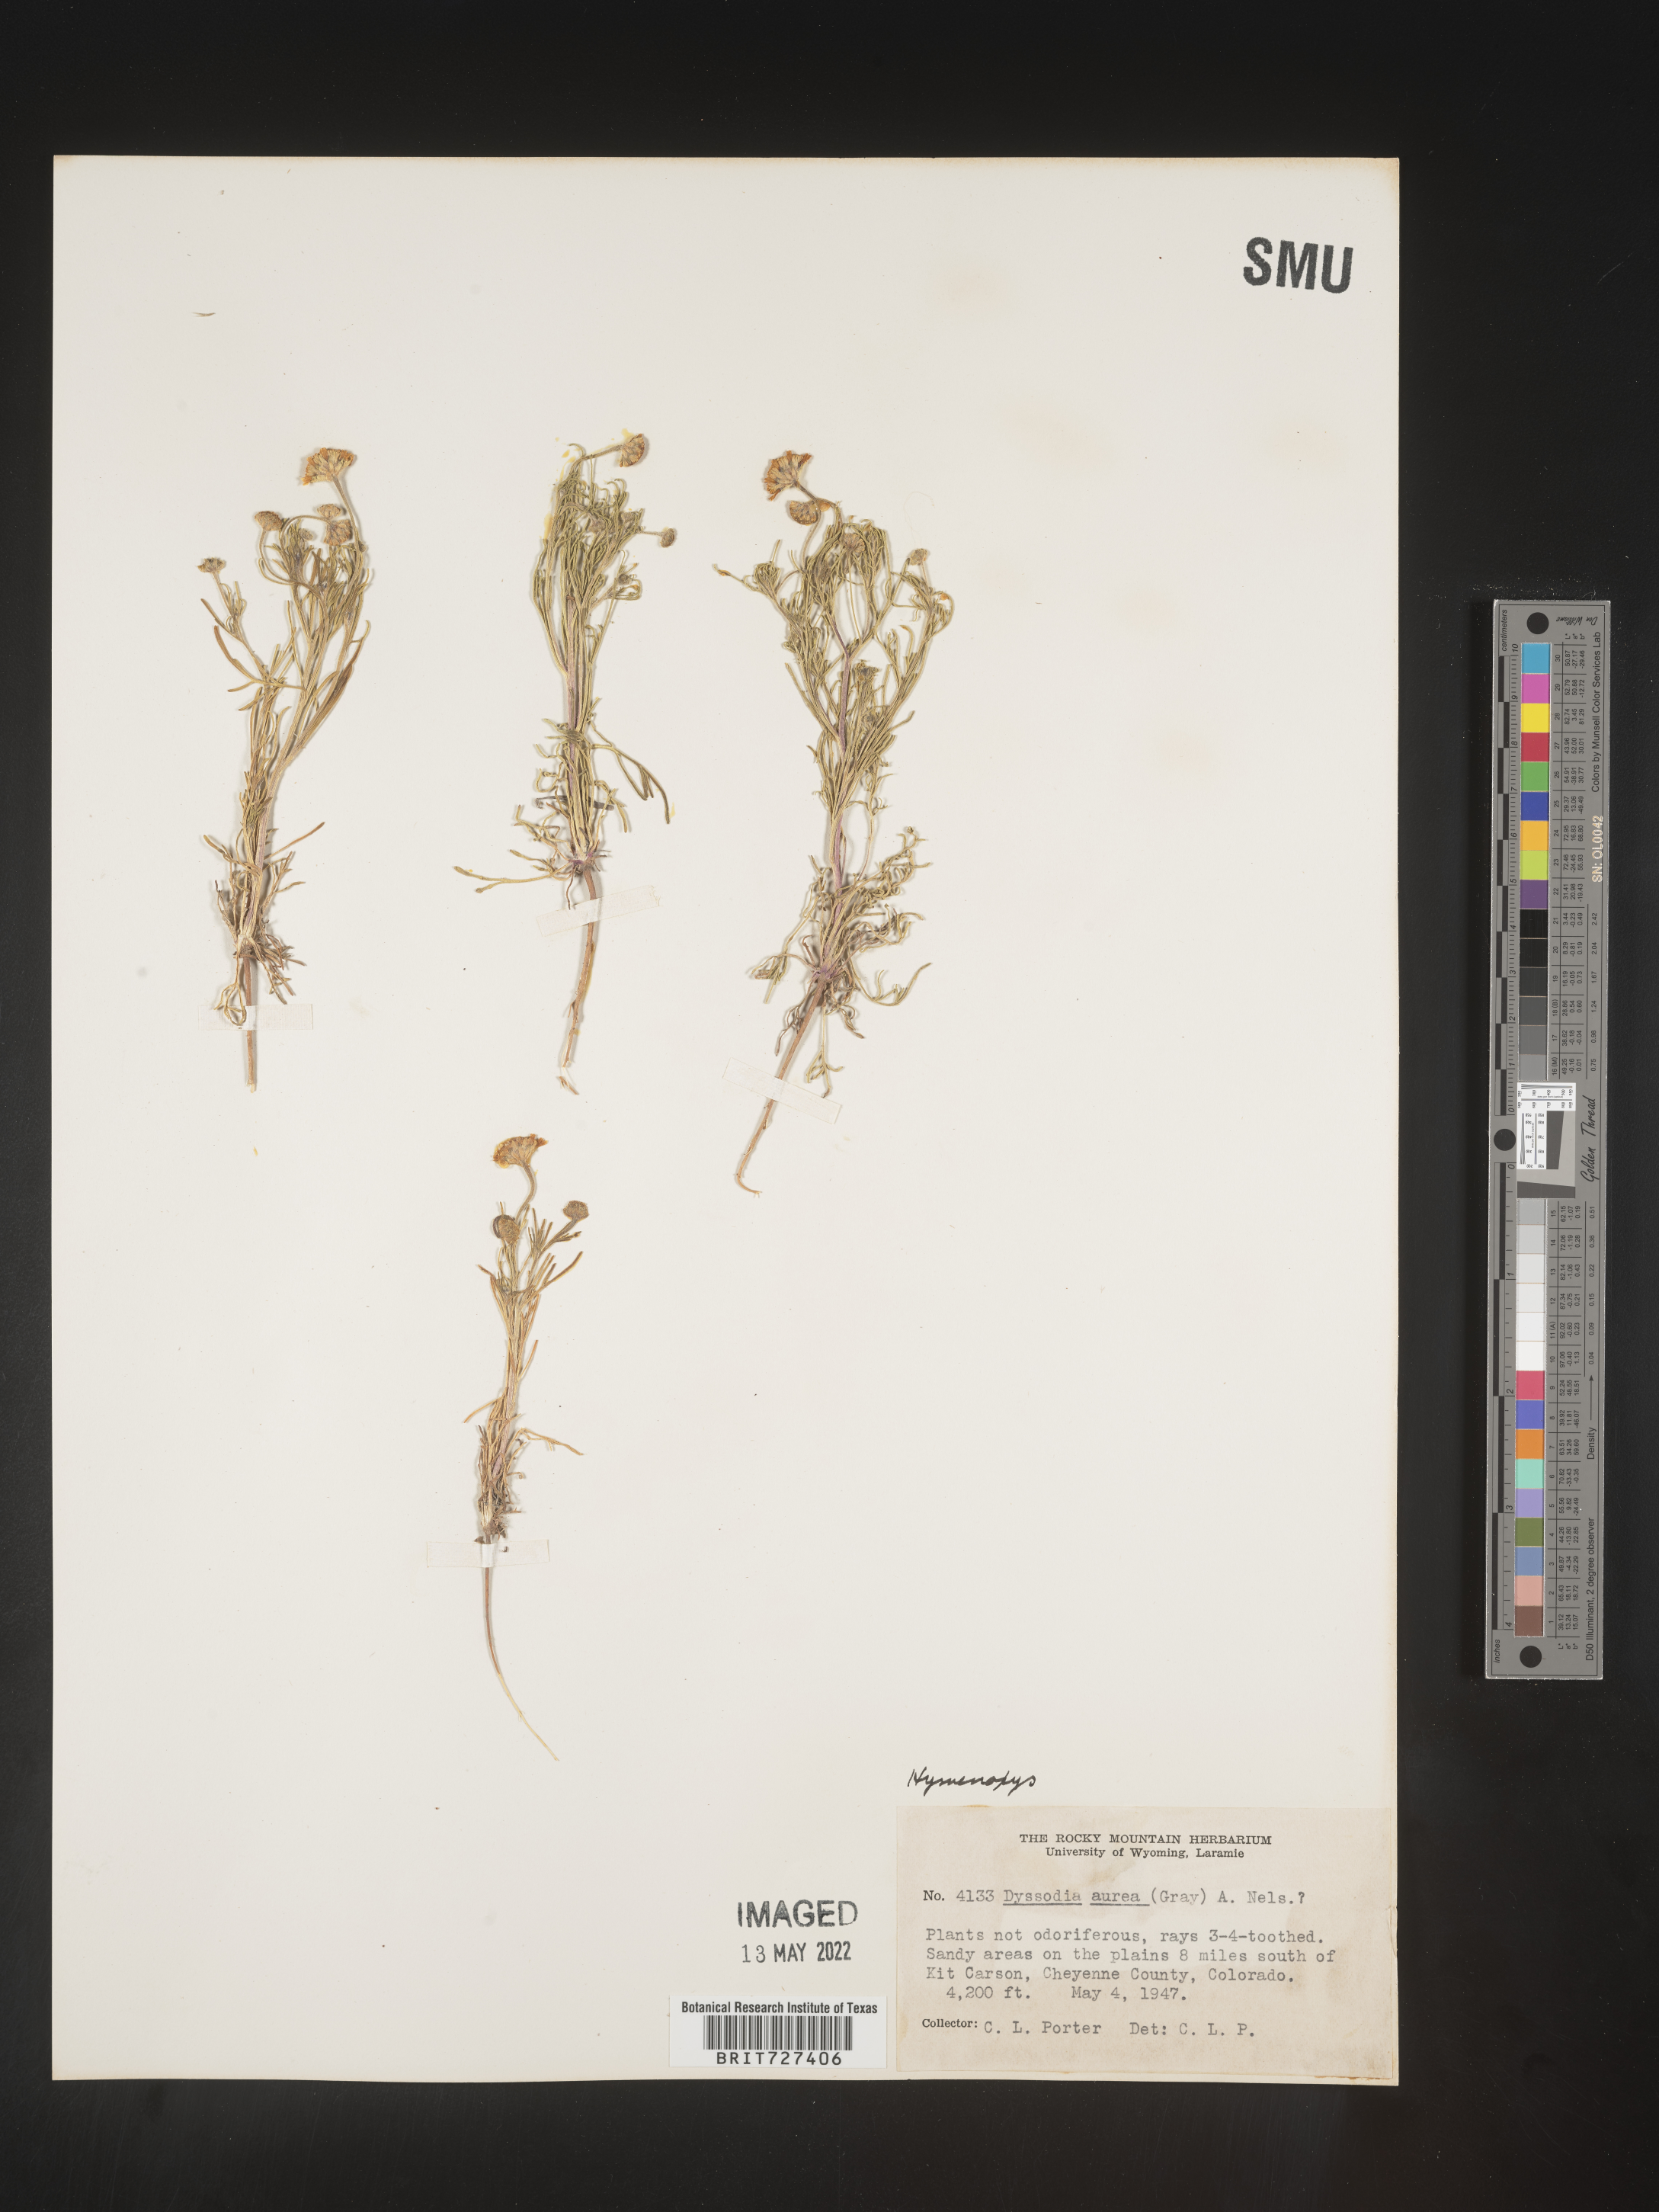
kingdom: Plantae
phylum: Tracheophyta
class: Magnoliopsida
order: Asterales
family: Asteraceae
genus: Hymenoxys
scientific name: Hymenoxys
